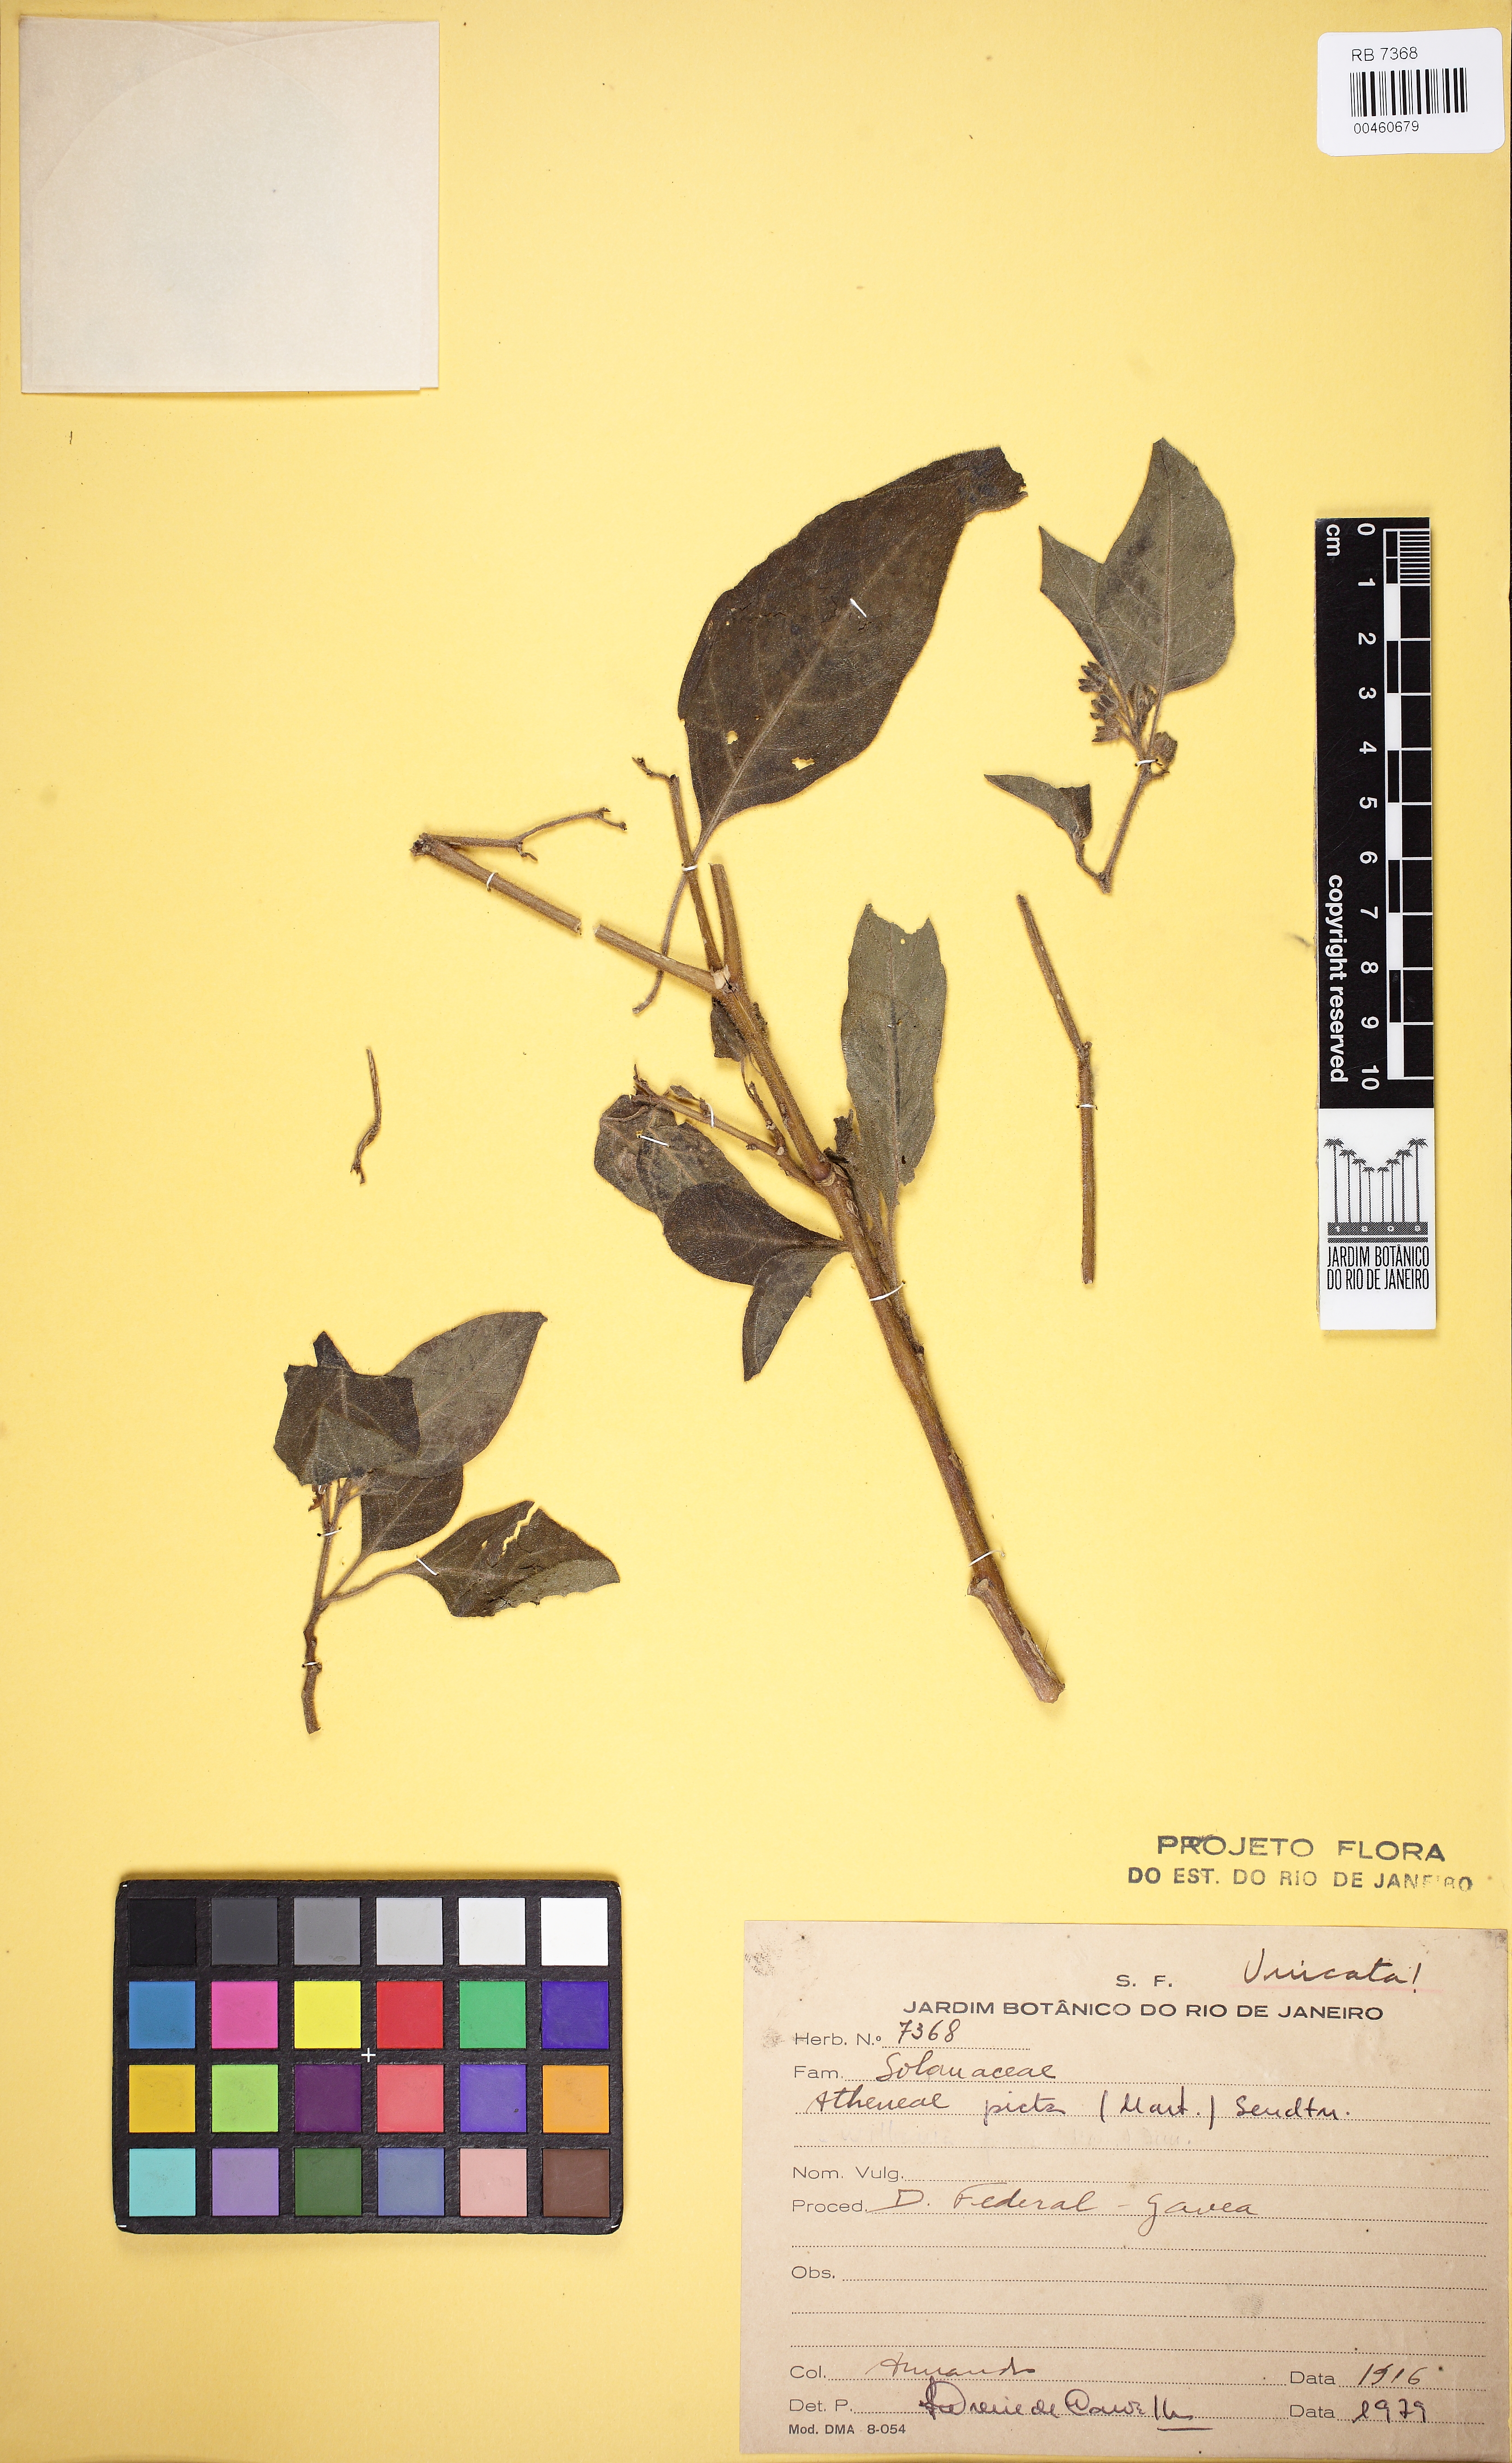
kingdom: Plantae
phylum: Tracheophyta
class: Magnoliopsida
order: Solanales
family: Solanaceae
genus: Athenaea
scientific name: Athenaea picta
